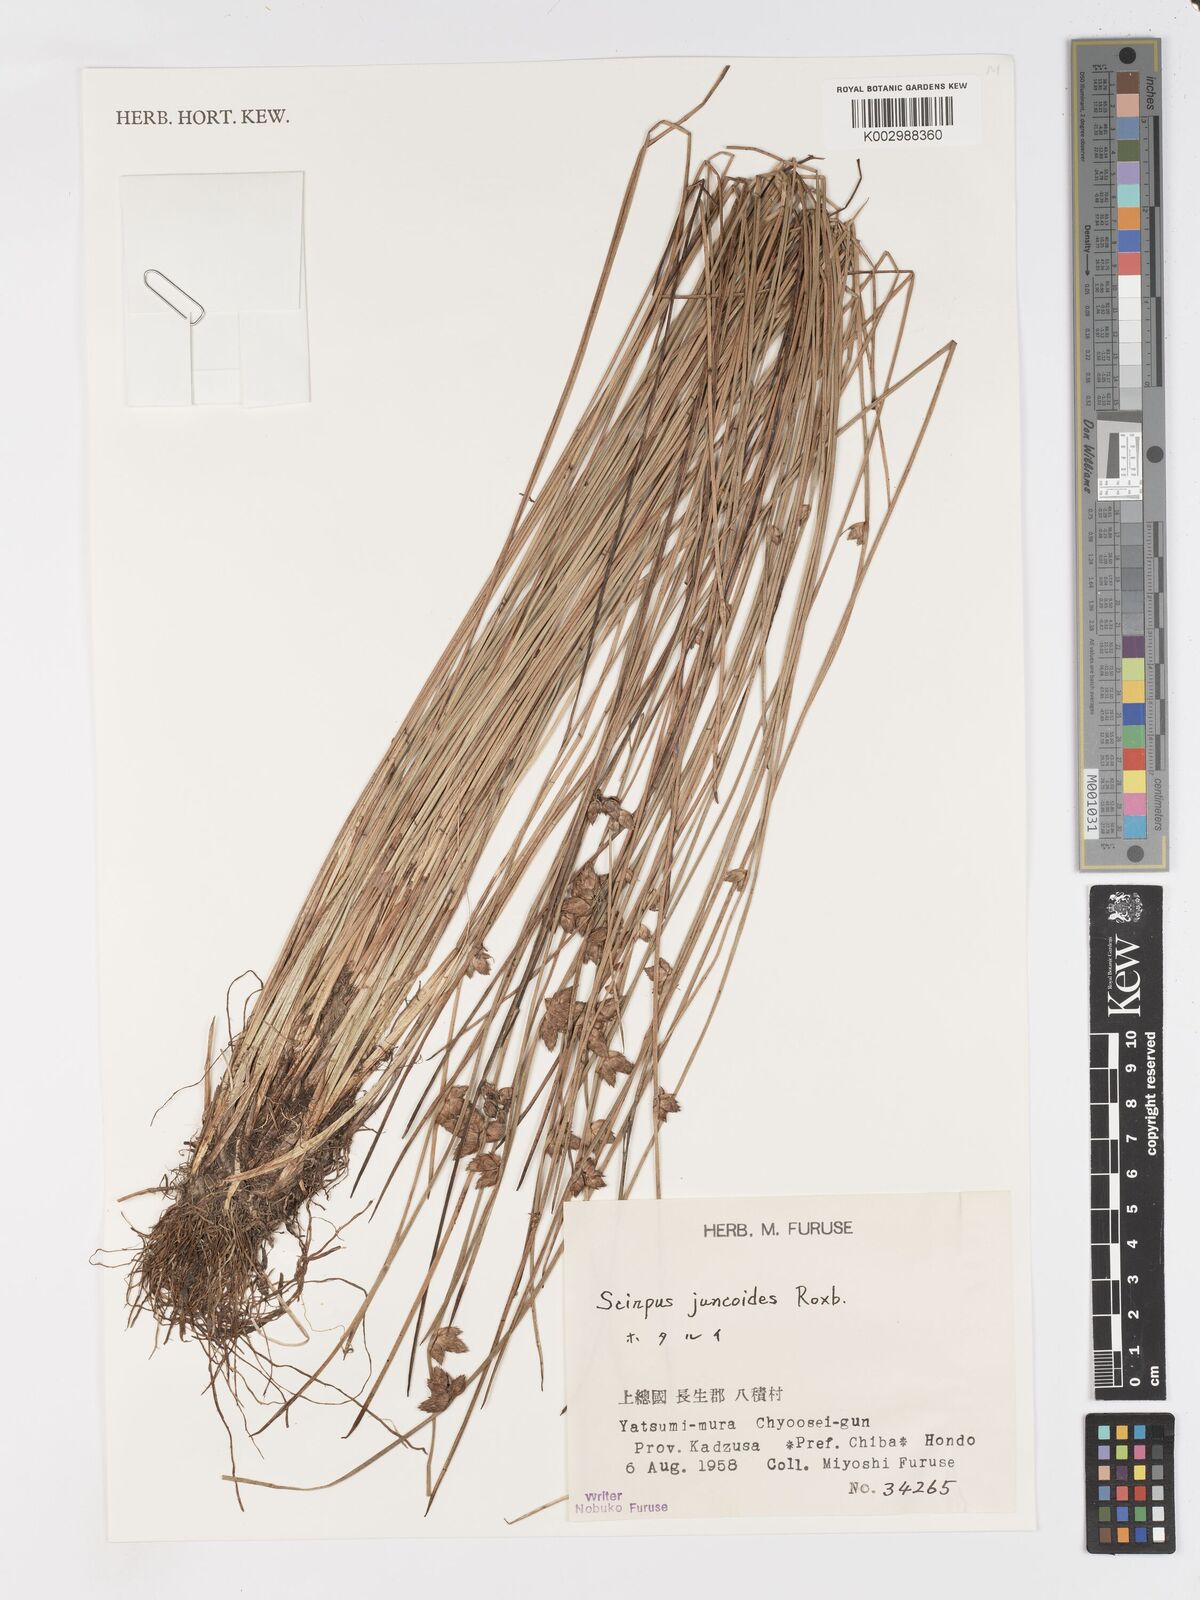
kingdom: Plantae
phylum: Tracheophyta
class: Liliopsida
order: Poales
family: Cyperaceae
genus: Schoenoplectiella
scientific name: Schoenoplectiella juncoides
